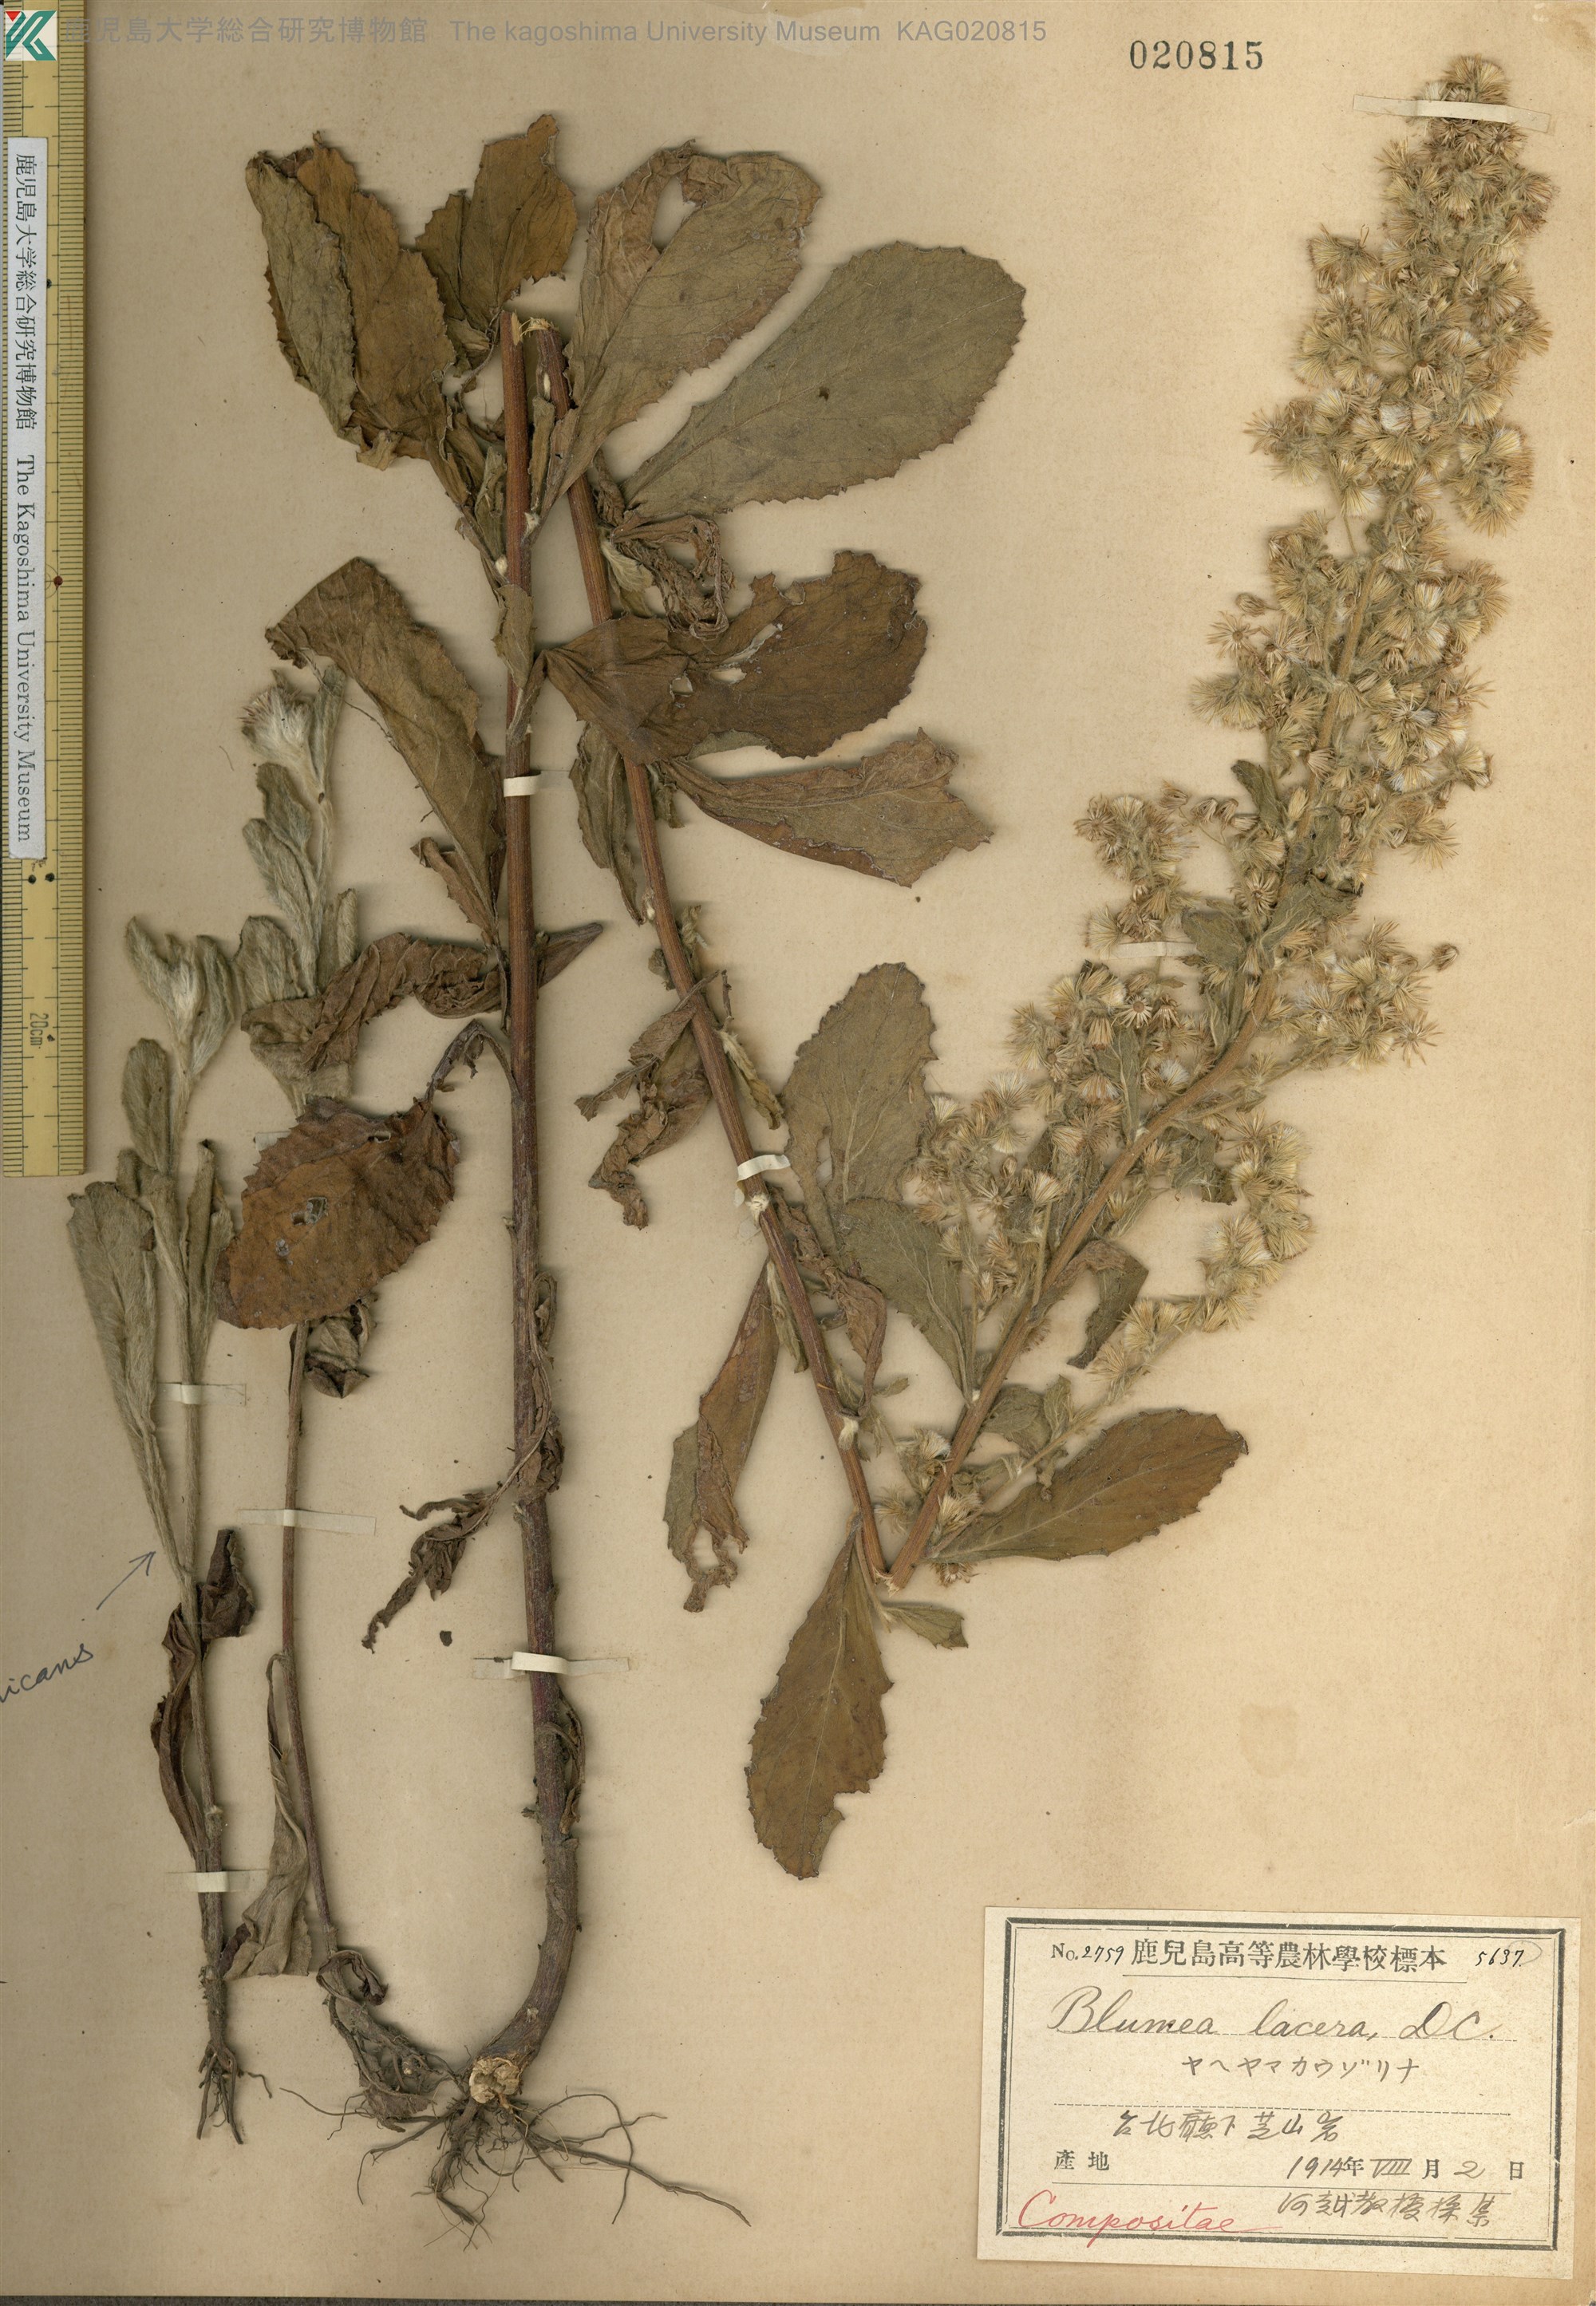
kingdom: Plantae
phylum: Tracheophyta
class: Magnoliopsida
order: Asterales
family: Asteraceae
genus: Blumea
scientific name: Blumea lacera
